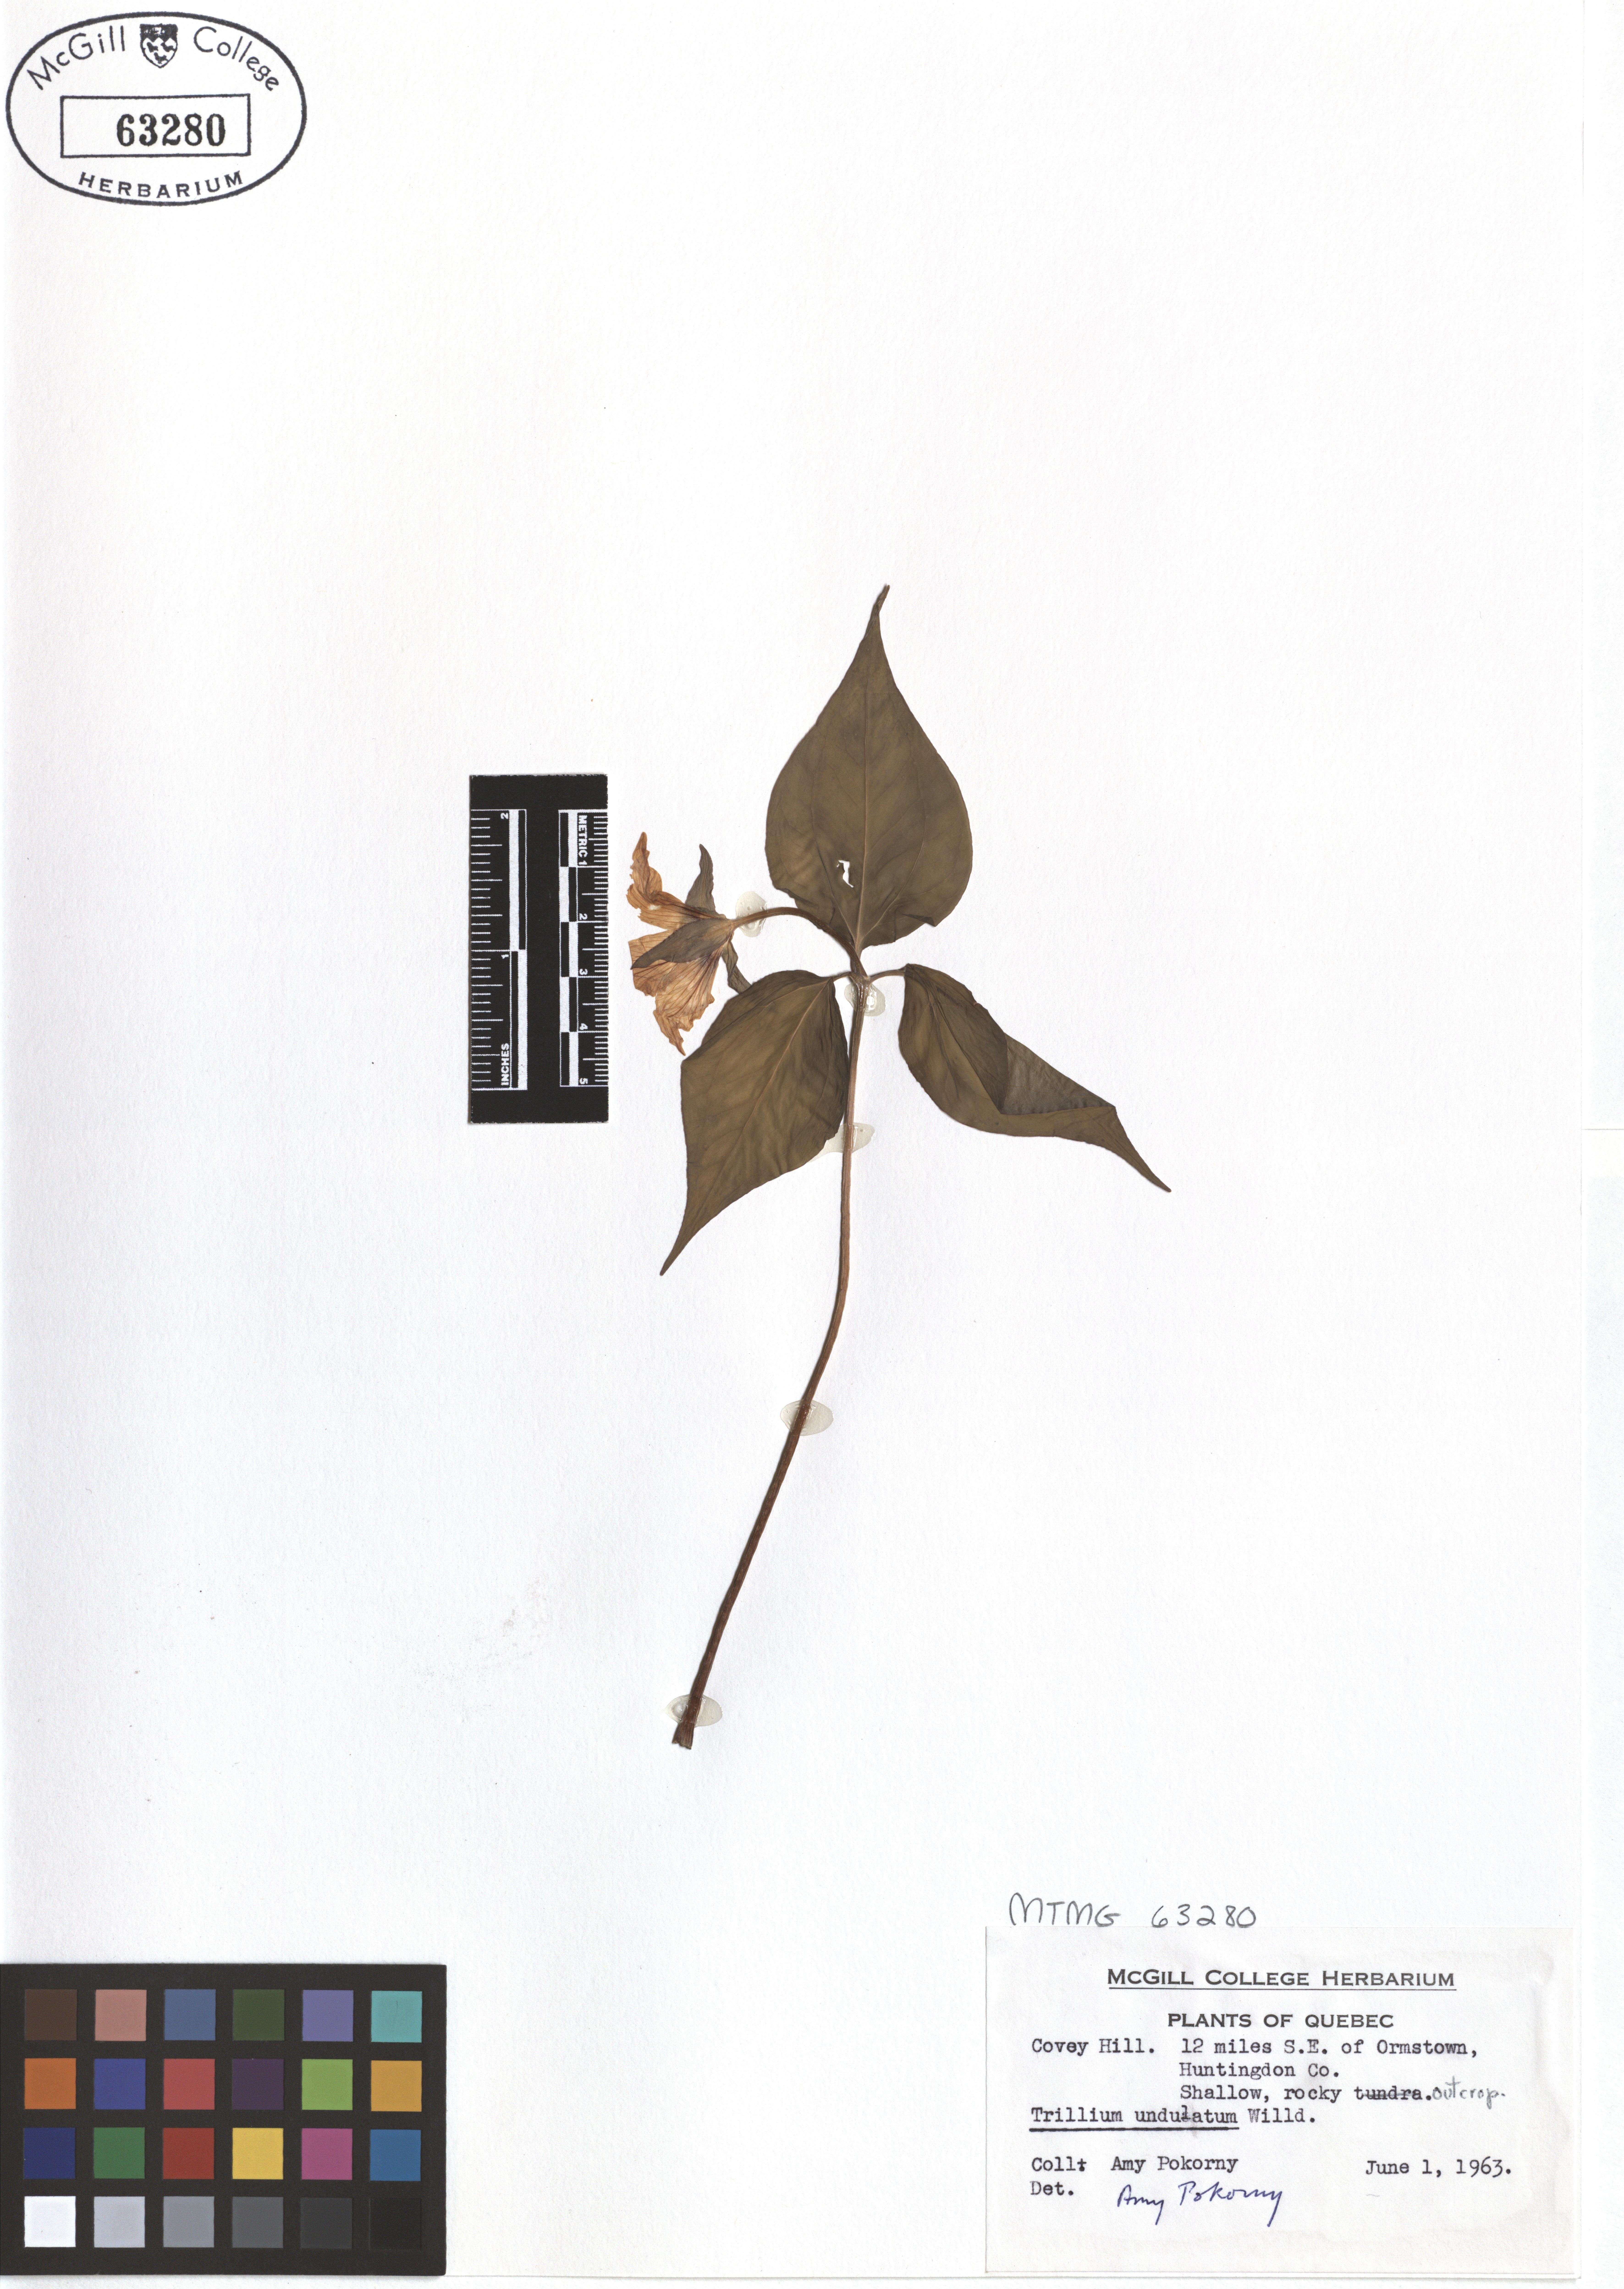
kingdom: Plantae
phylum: Tracheophyta
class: Liliopsida
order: Liliales
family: Melanthiaceae
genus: Trillium
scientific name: Trillium undulatum
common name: Paint trillium
